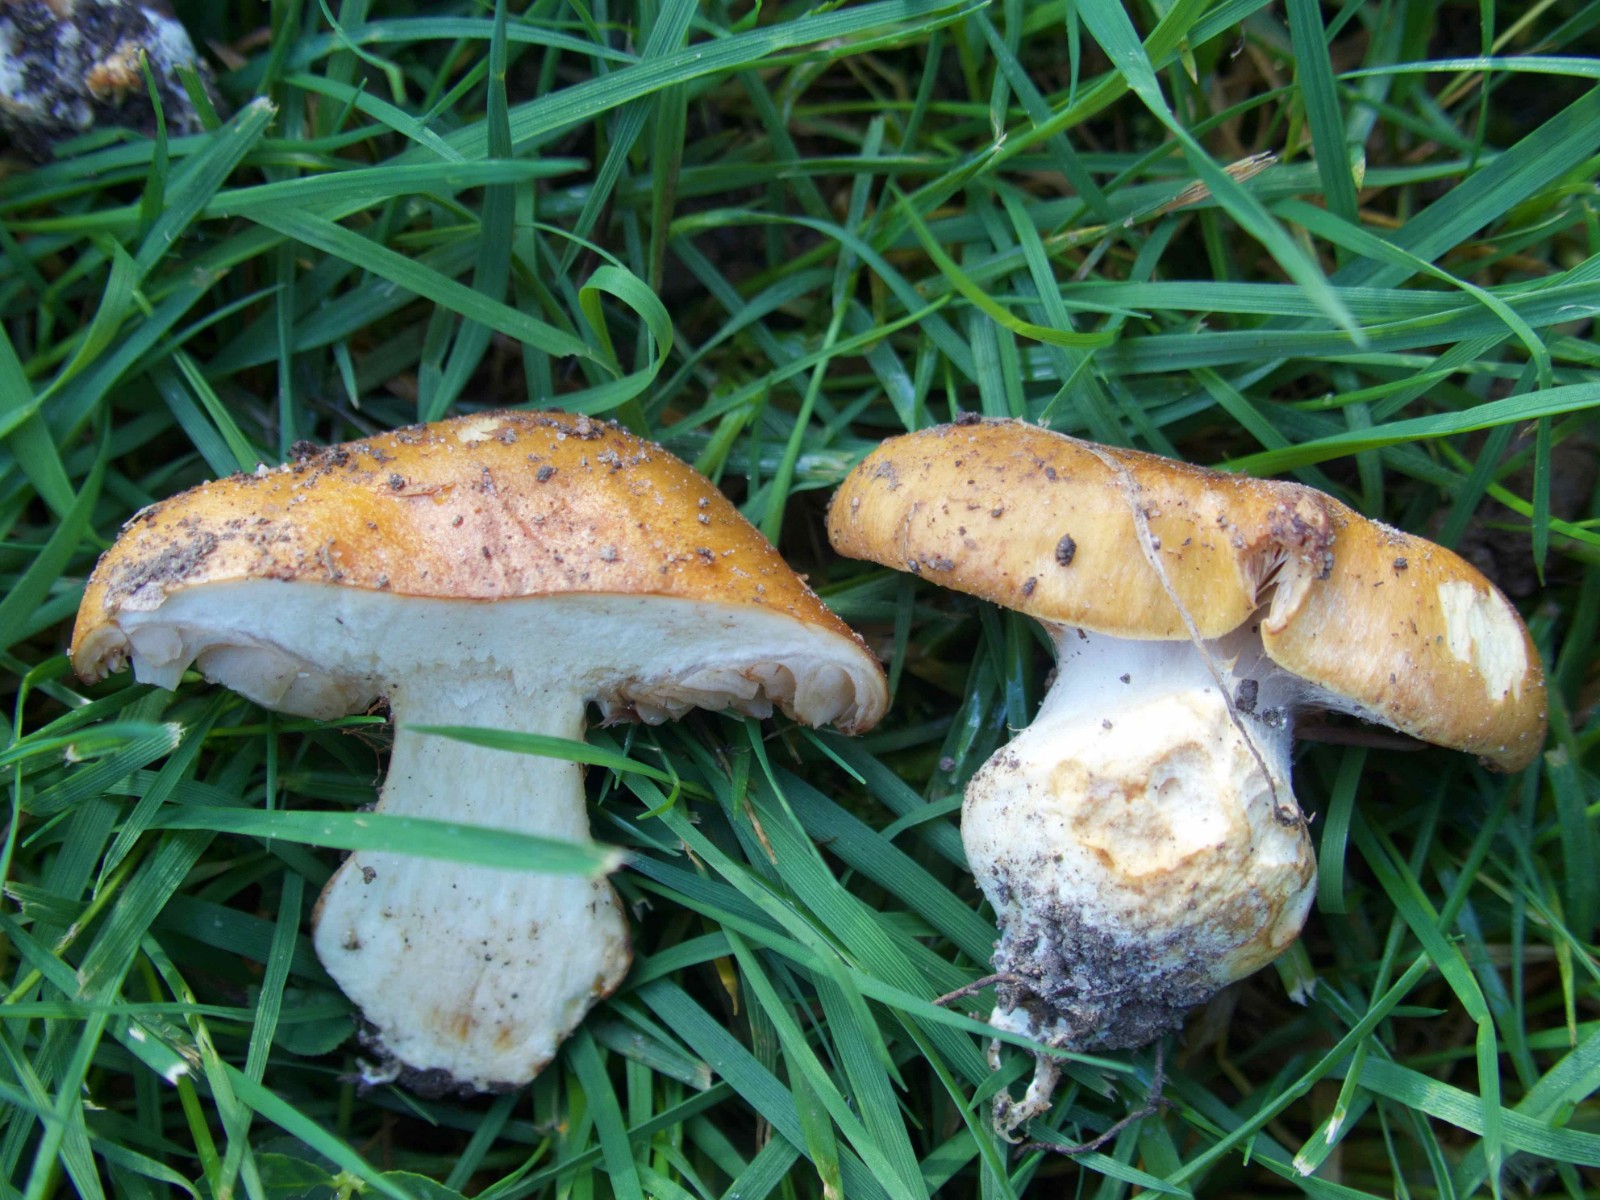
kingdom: Fungi
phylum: Basidiomycota
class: Agaricomycetes
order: Agaricales
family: Cortinariaceae
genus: Phlegmacium
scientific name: Phlegmacium subdecolorans
